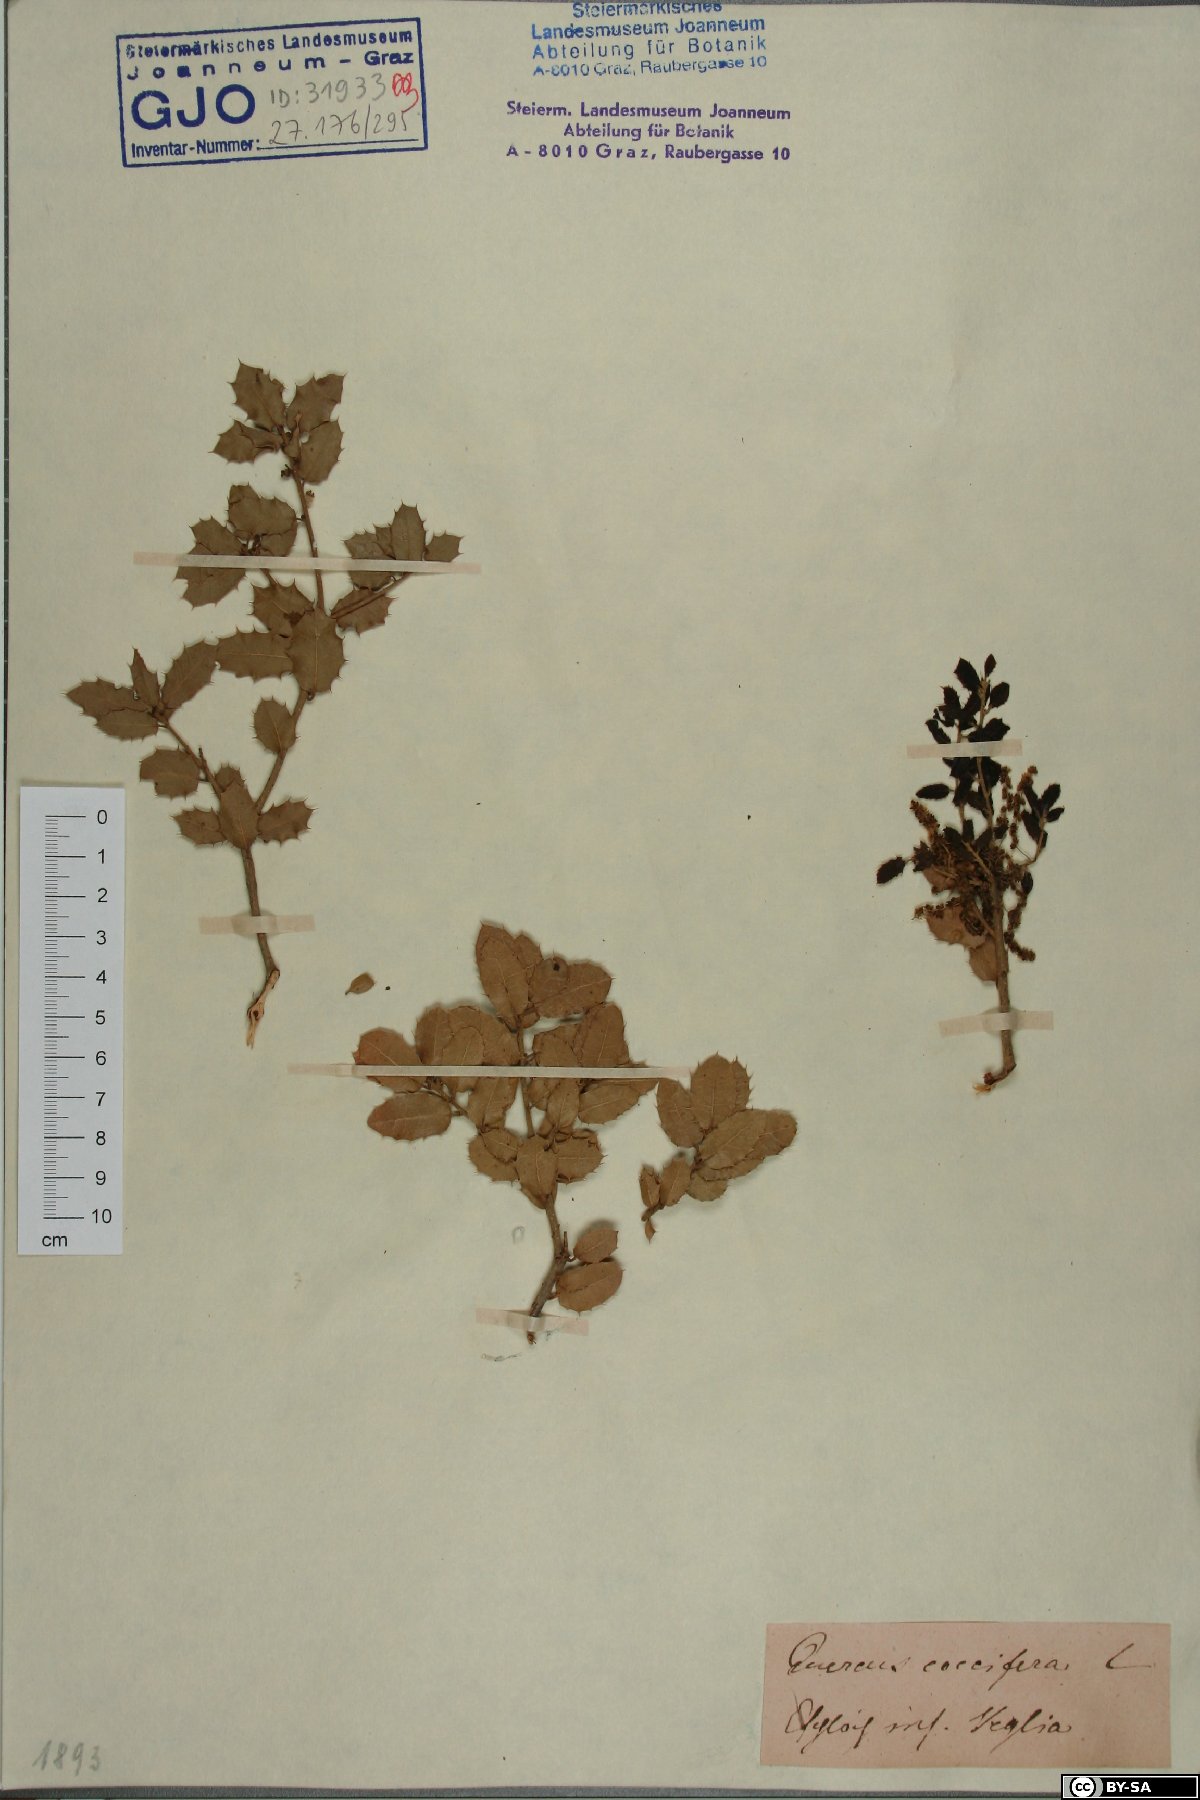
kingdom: Plantae
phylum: Tracheophyta
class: Magnoliopsida
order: Fagales
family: Fagaceae
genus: Quercus
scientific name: Quercus coccifera
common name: Kermes oak
